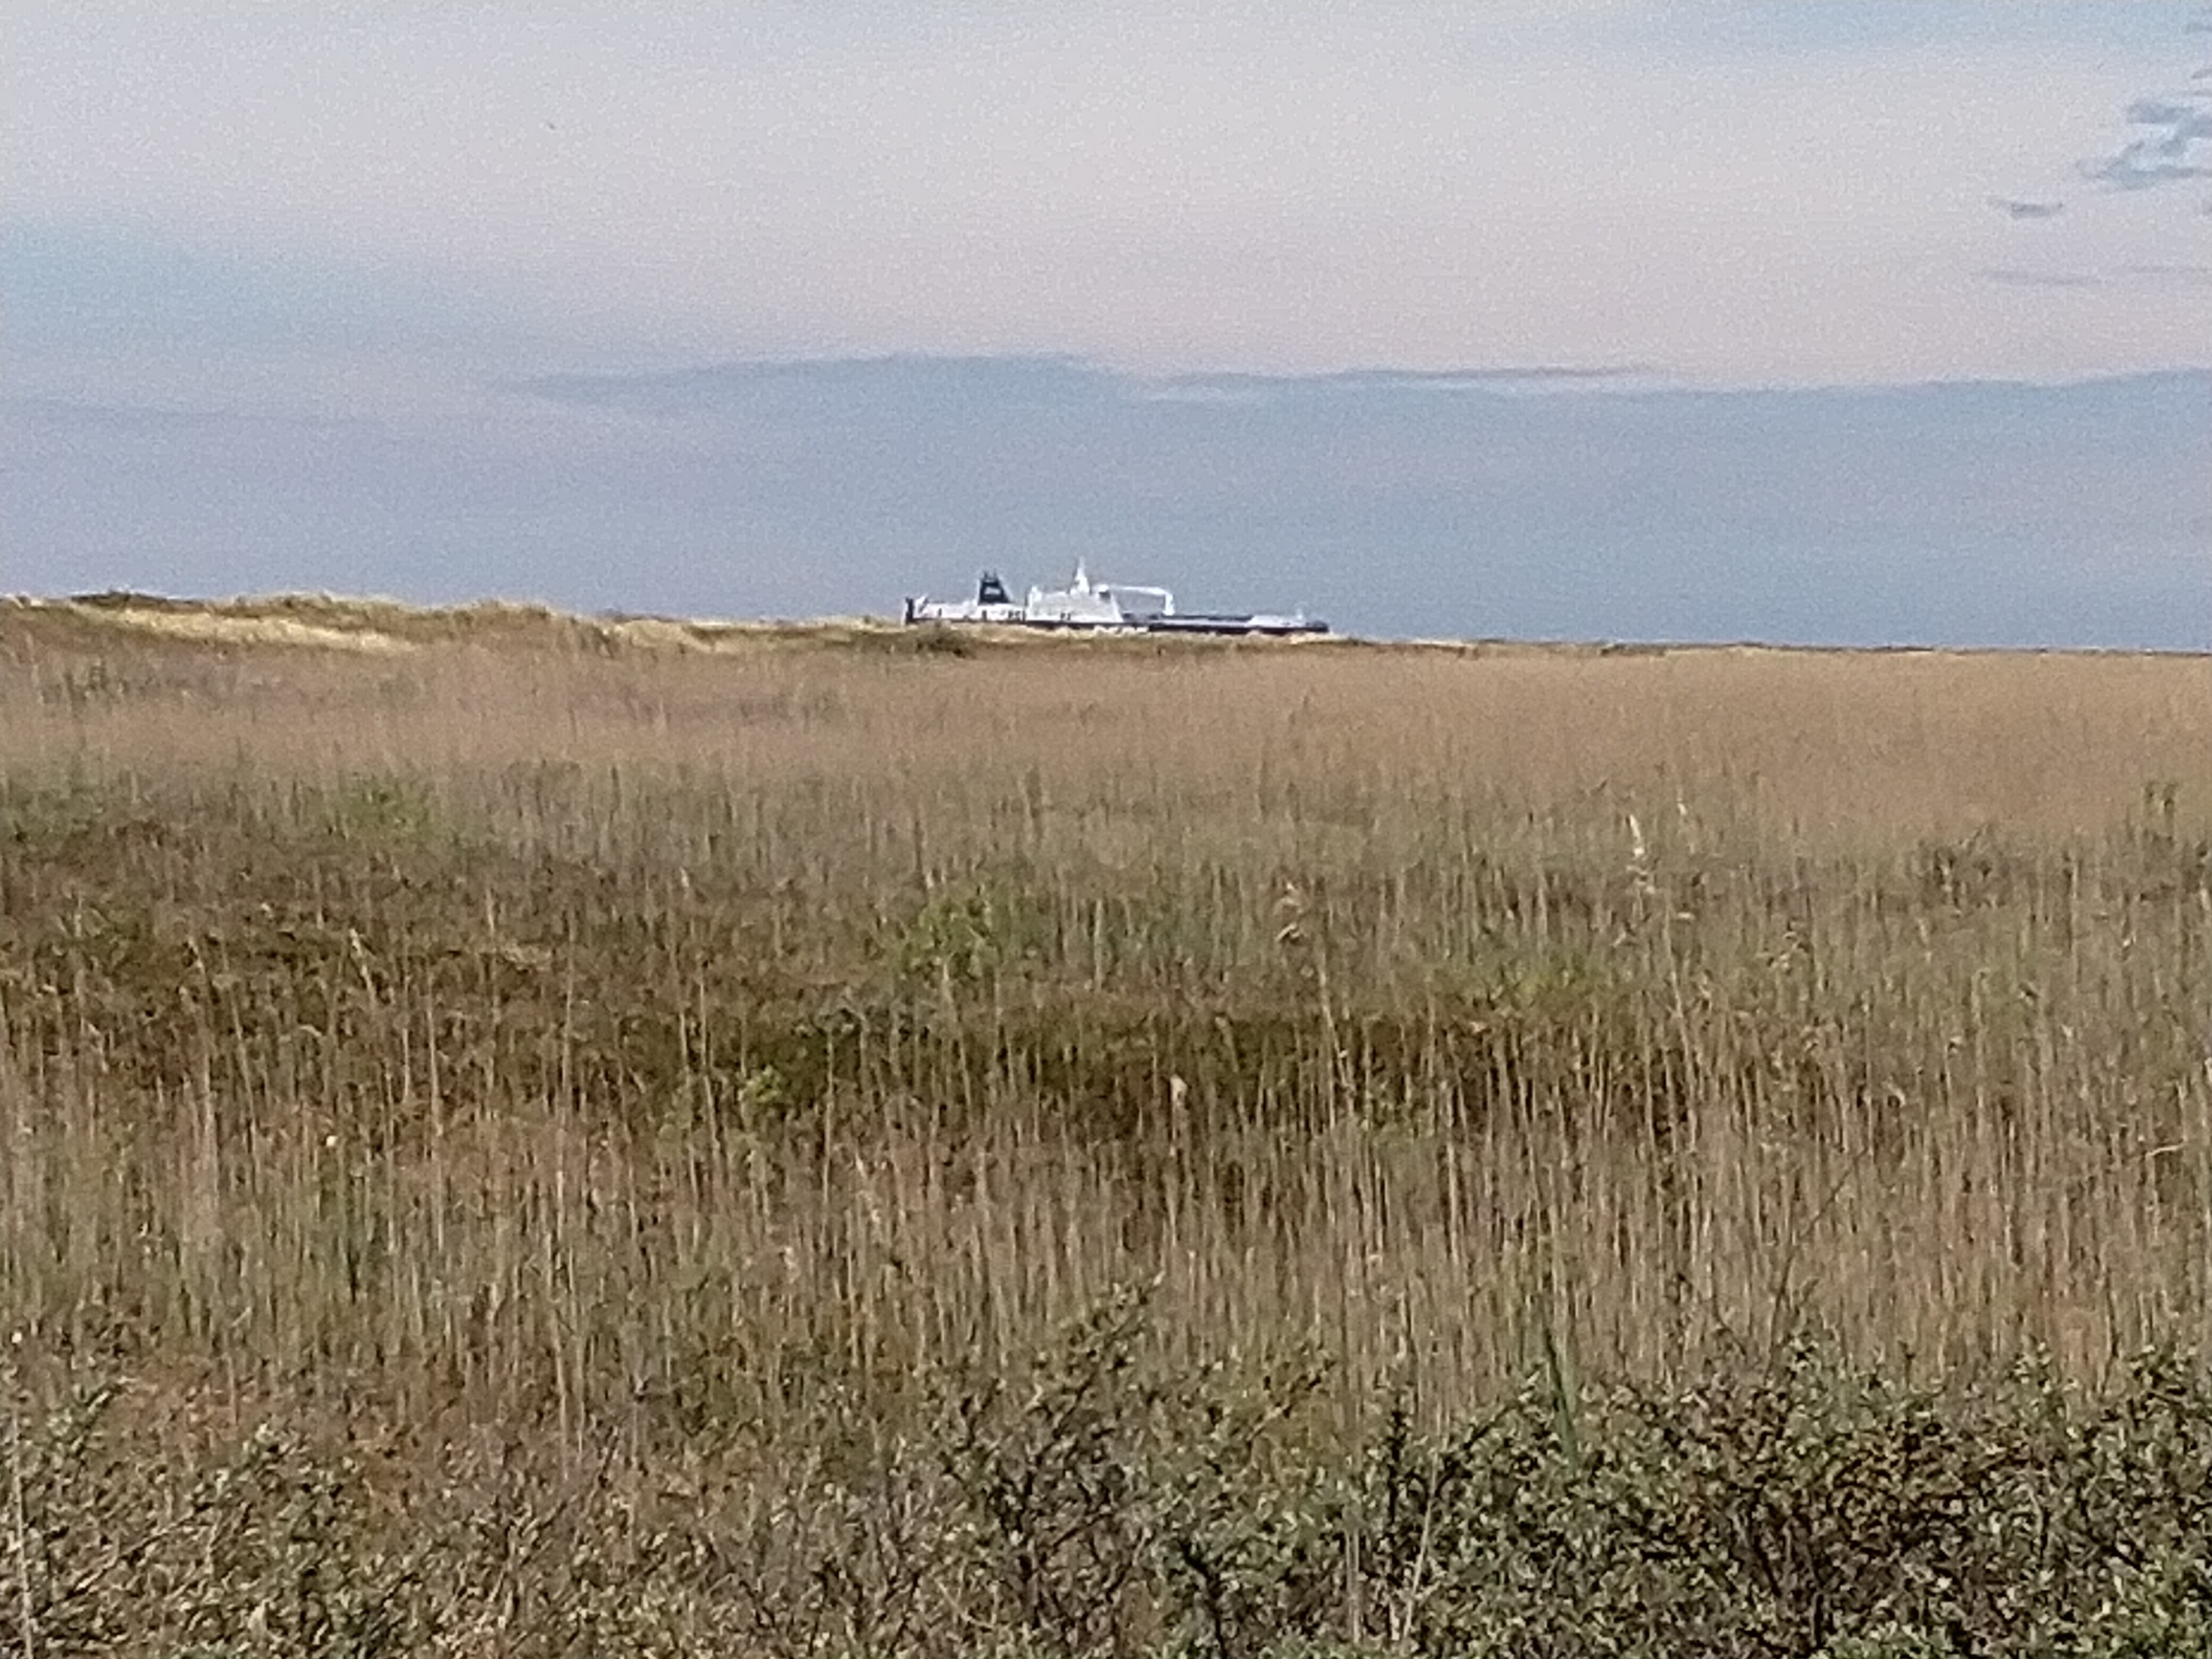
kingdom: Animalia
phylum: Chordata
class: Aves
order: Accipitriformes
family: Accipitridae
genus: Circus
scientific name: Circus aeruginosus
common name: Rørhøg
